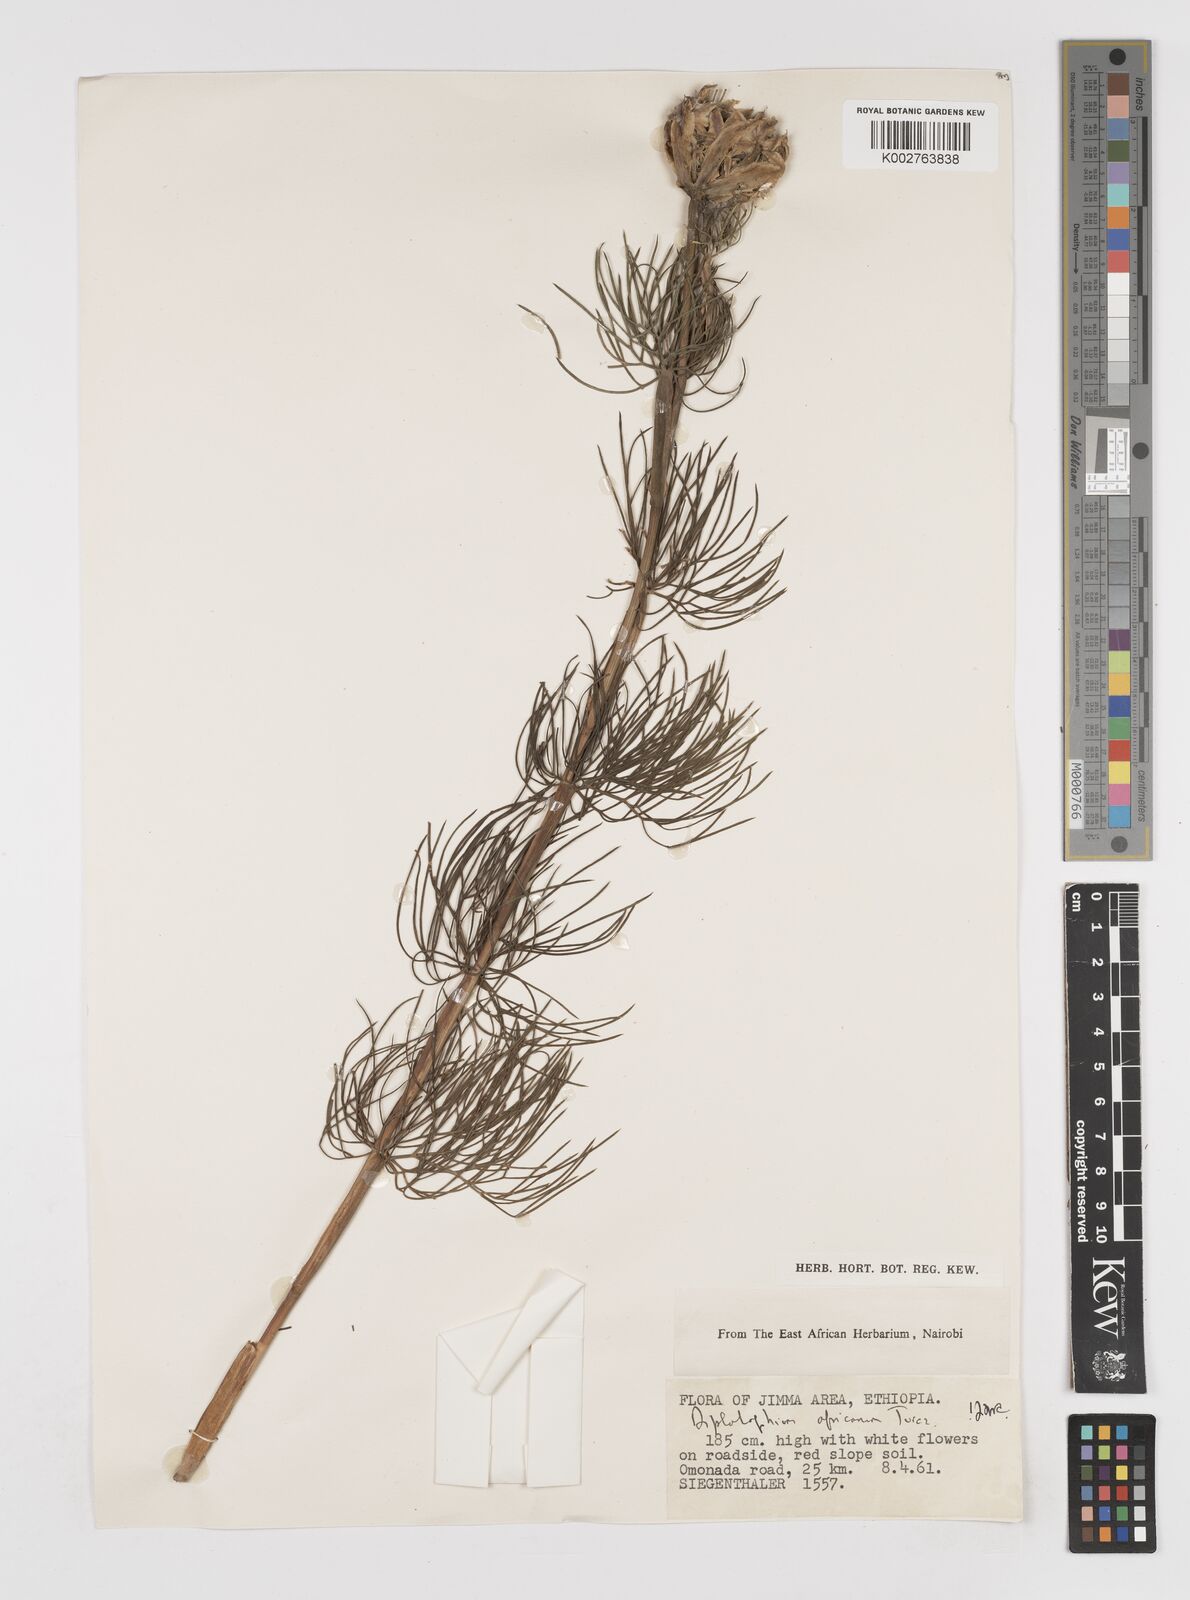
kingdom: Plantae
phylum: Tracheophyta
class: Magnoliopsida
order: Apiales
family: Apiaceae
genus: Diplolophium
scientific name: Diplolophium africanum
